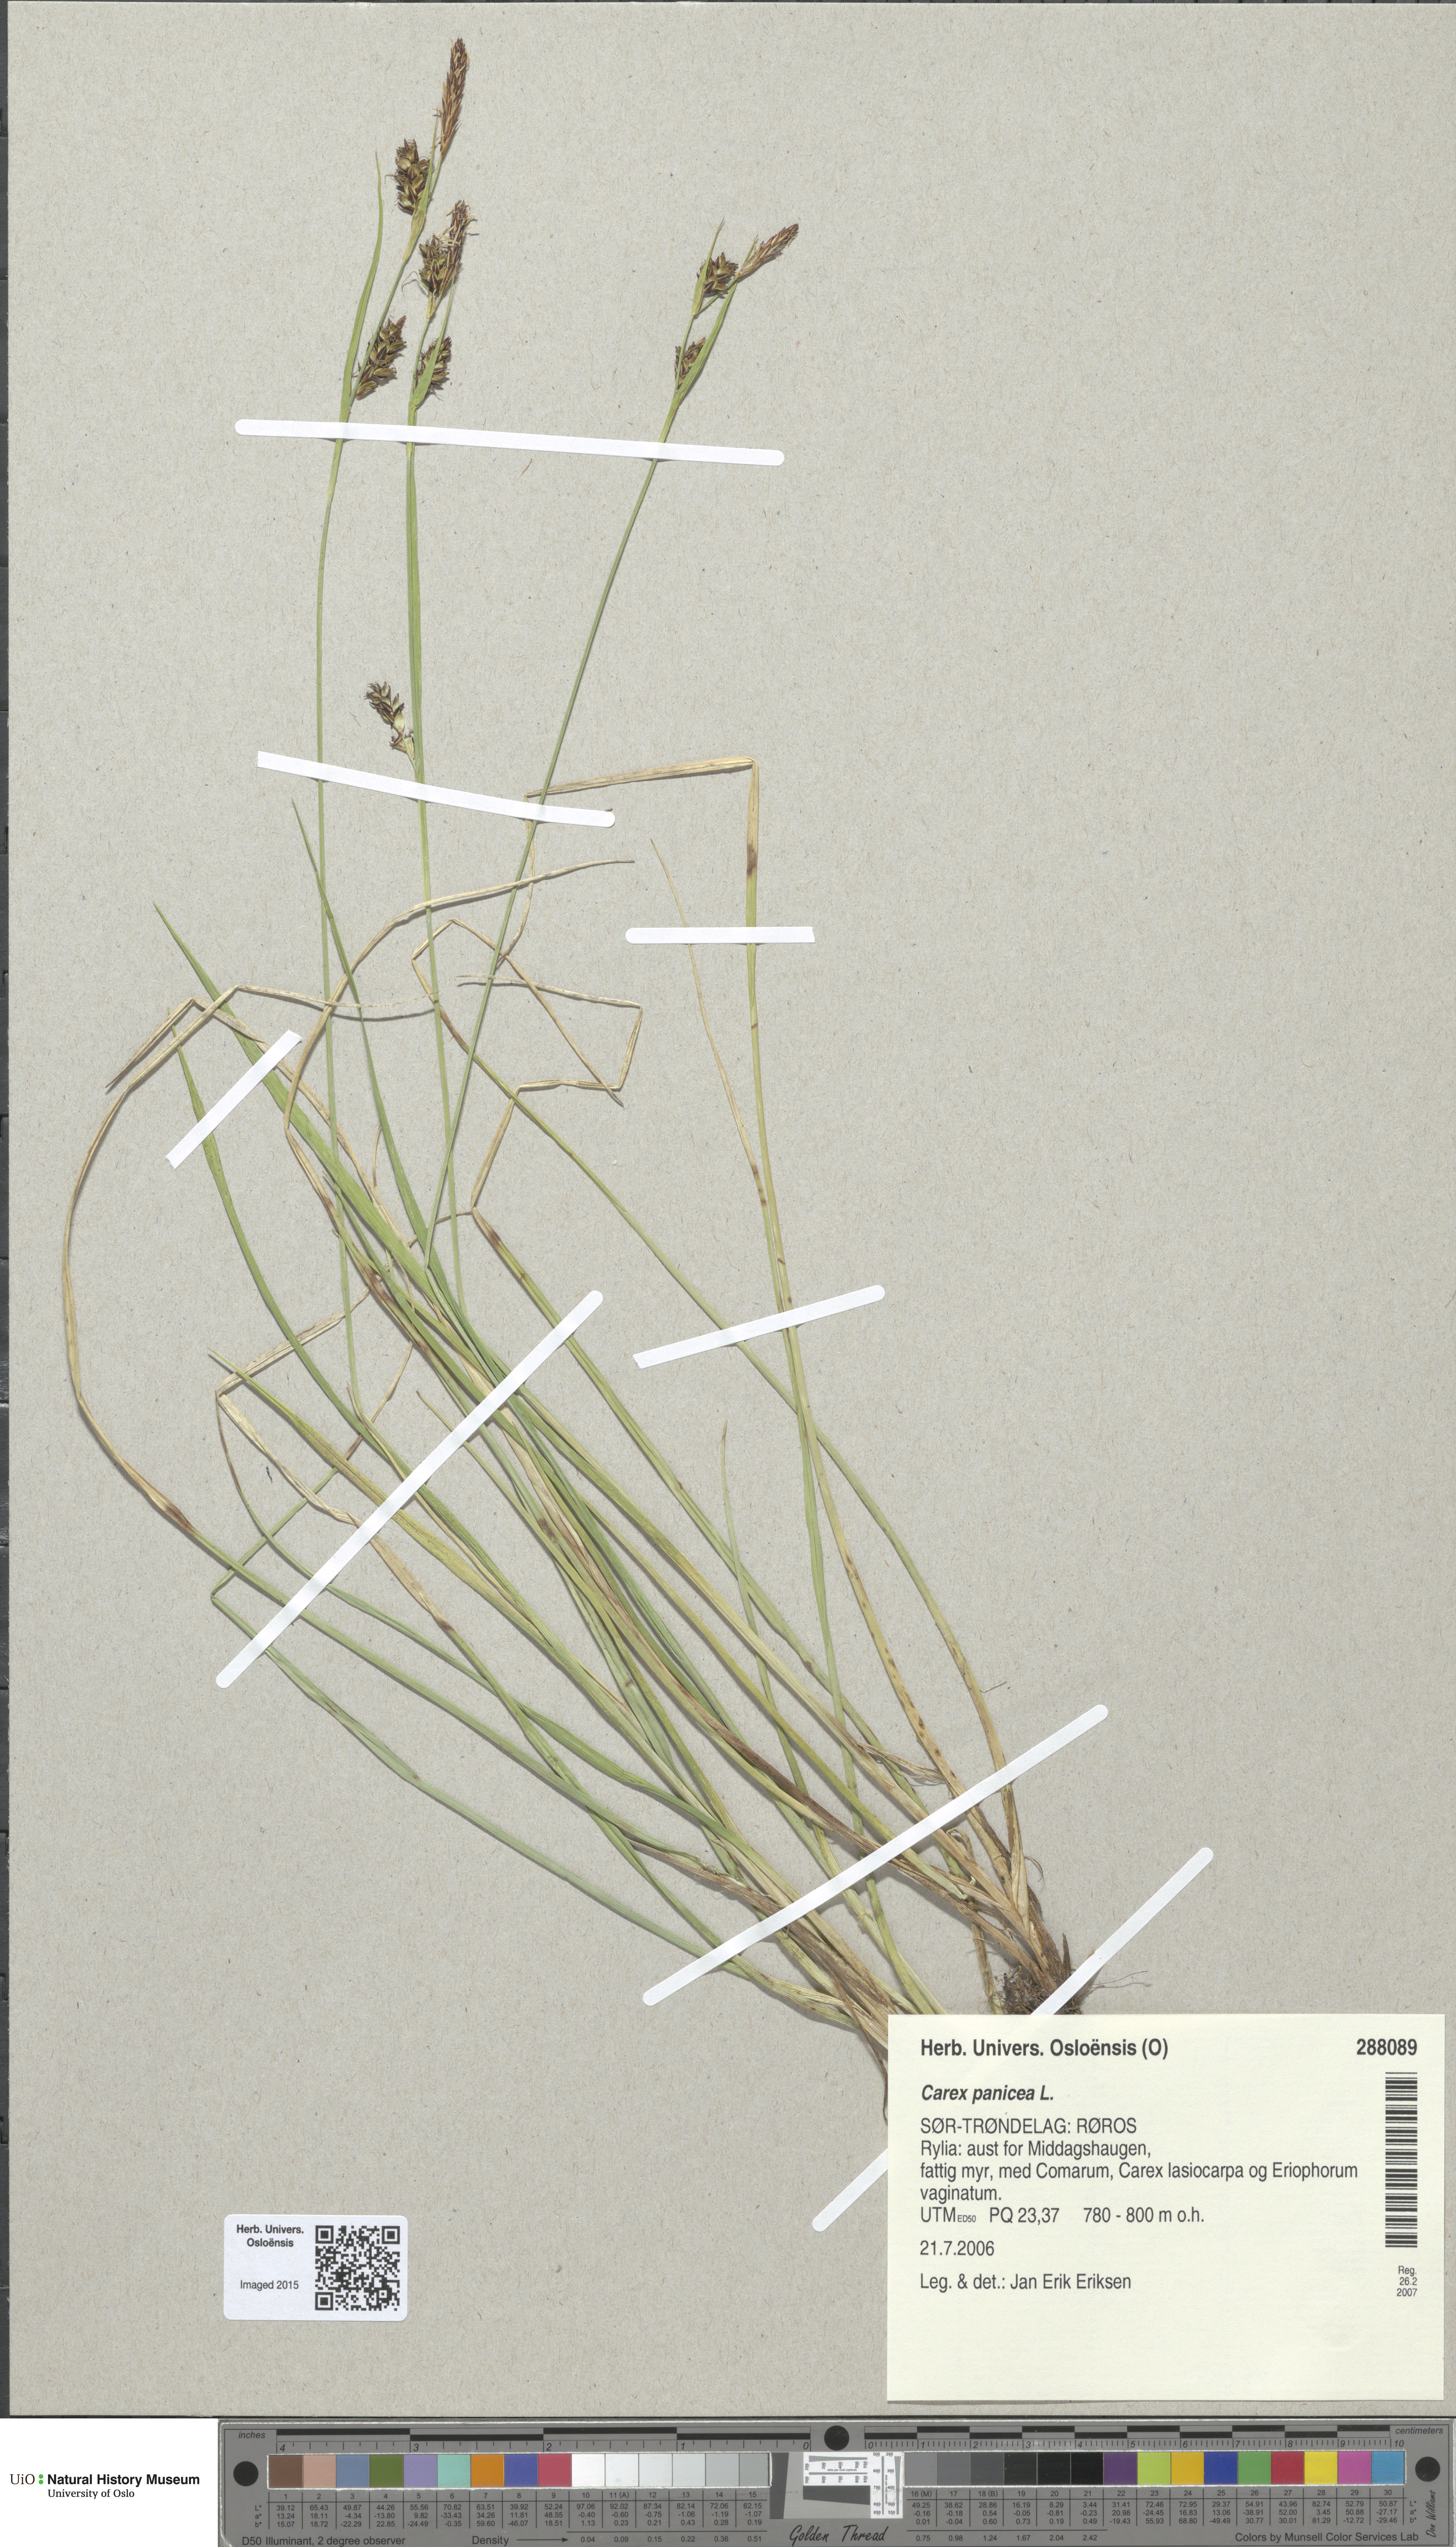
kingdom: Plantae
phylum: Tracheophyta
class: Liliopsida
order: Poales
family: Cyperaceae
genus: Carex
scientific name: Carex panicea
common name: Carnation sedge
